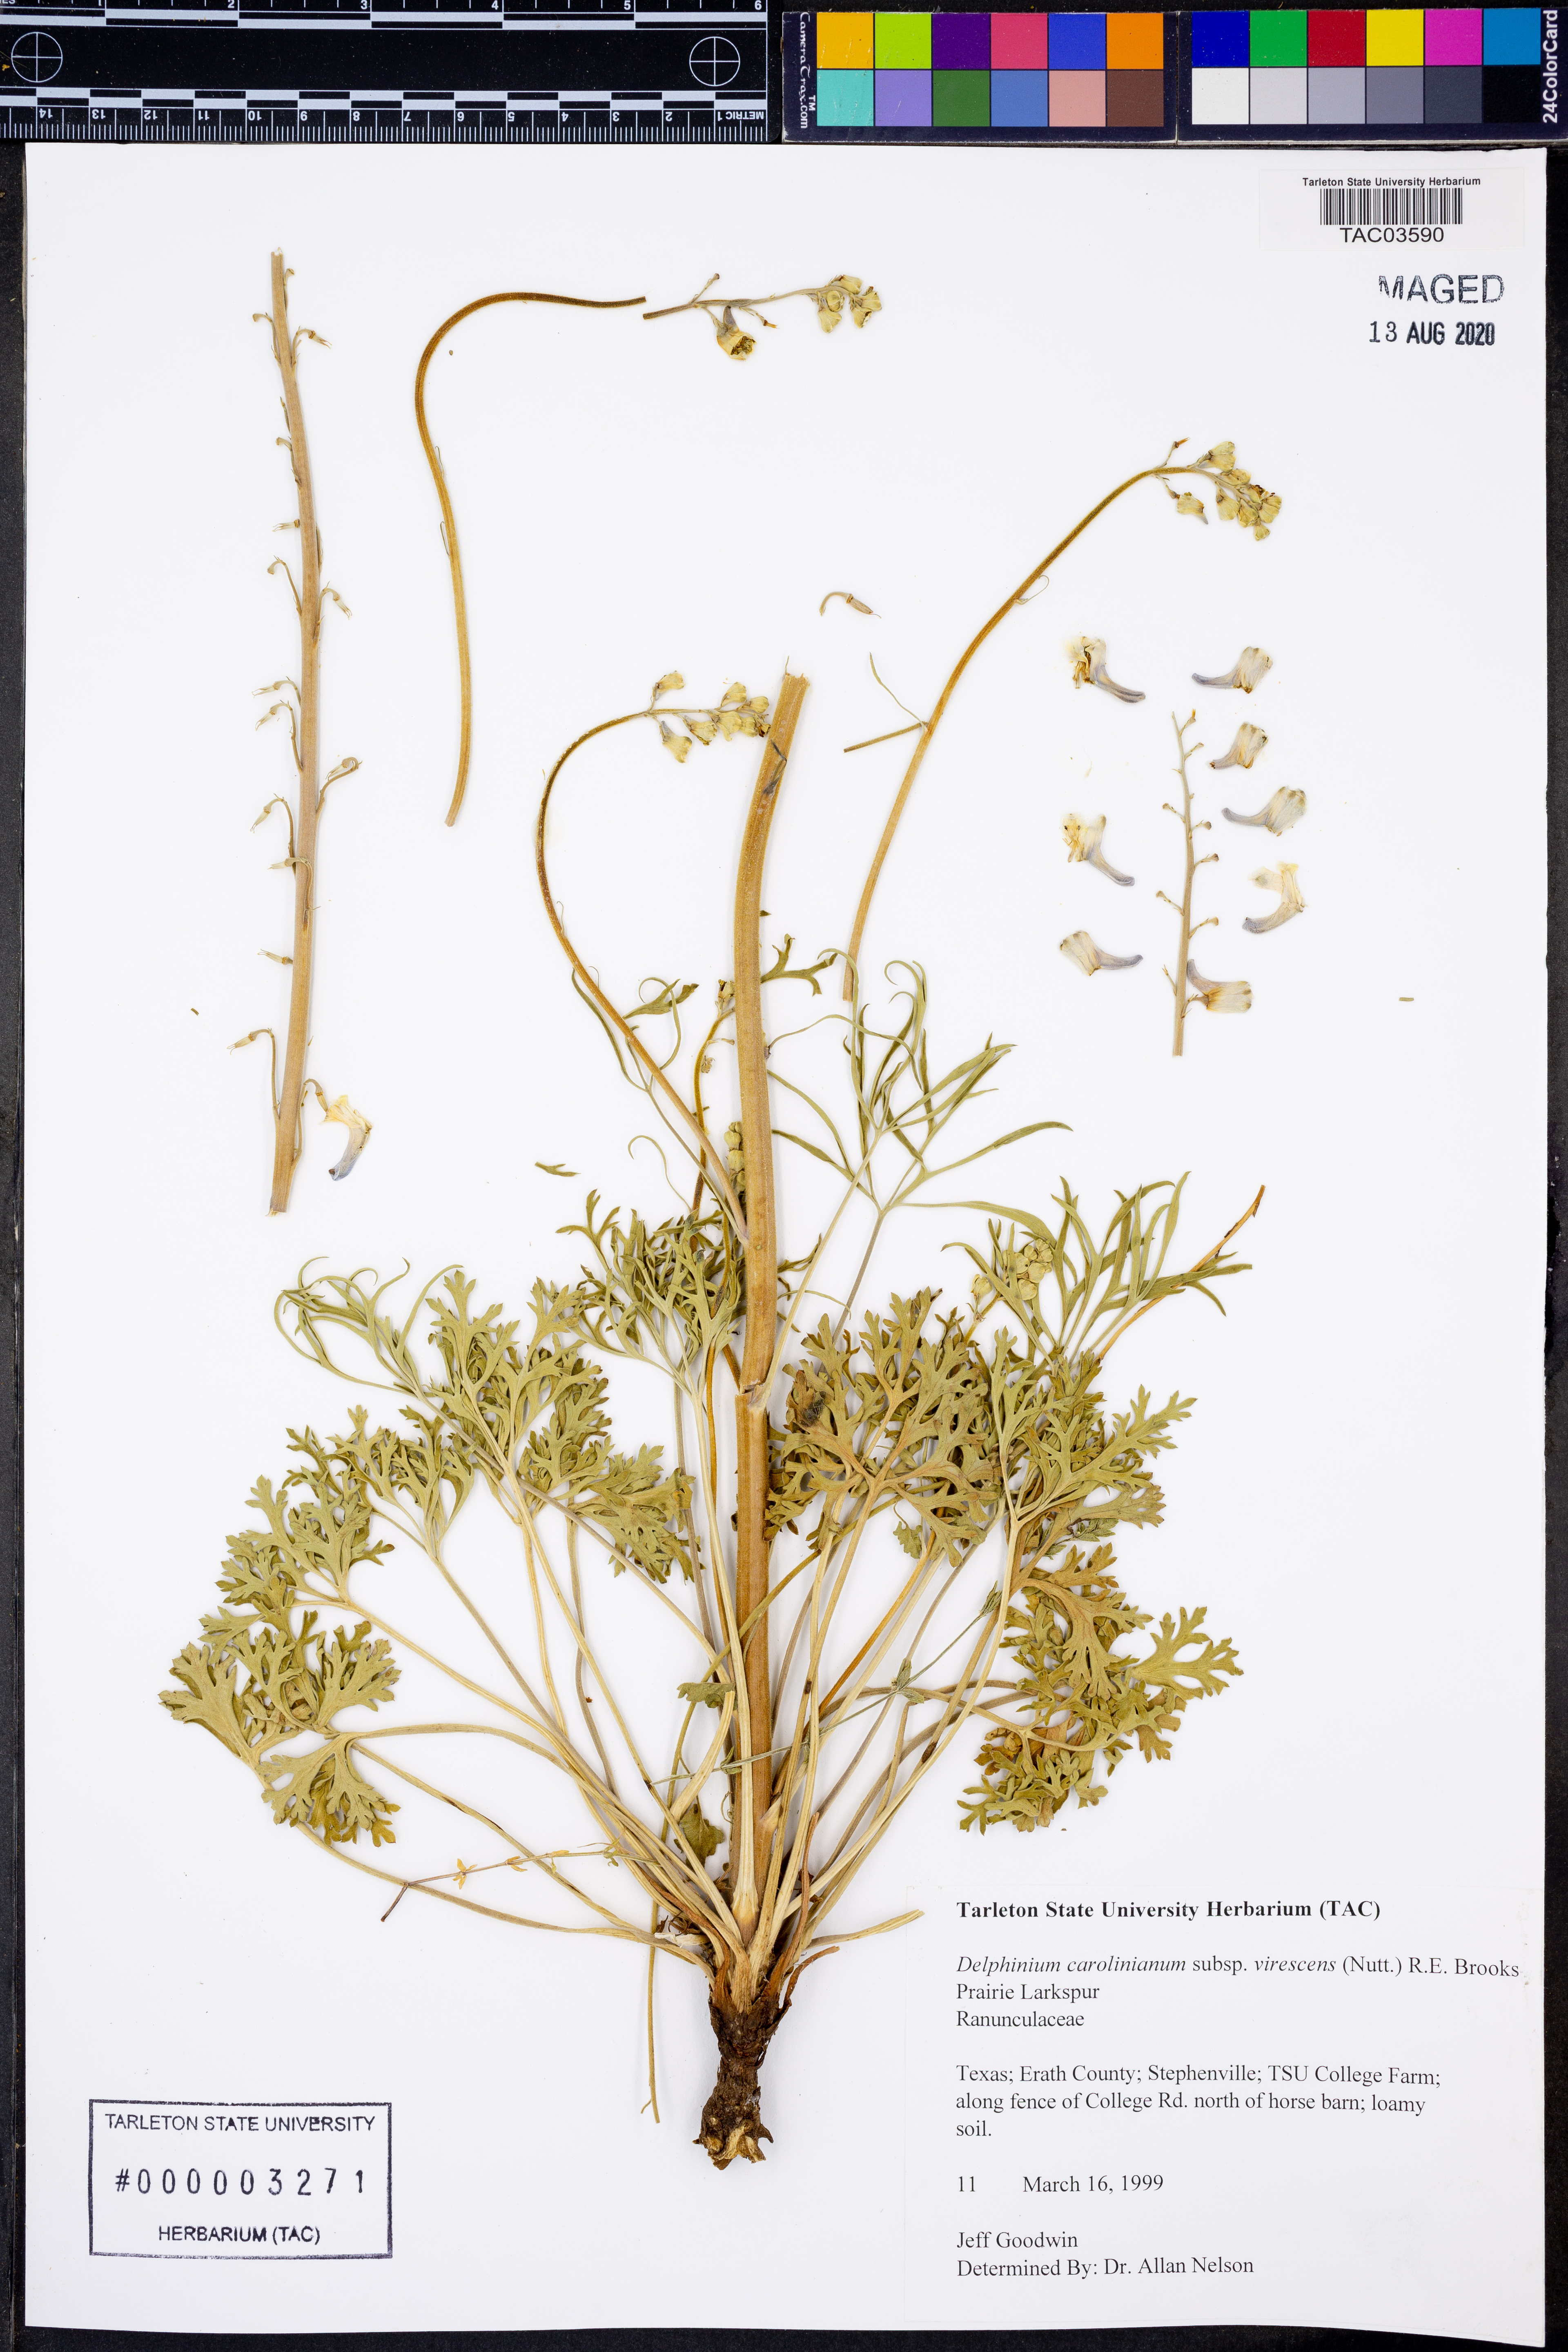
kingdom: Plantae
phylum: Tracheophyta
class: Magnoliopsida
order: Ranunculales
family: Ranunculaceae
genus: Delphinium
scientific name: Delphinium carolinianum
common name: Carolina larkspur
